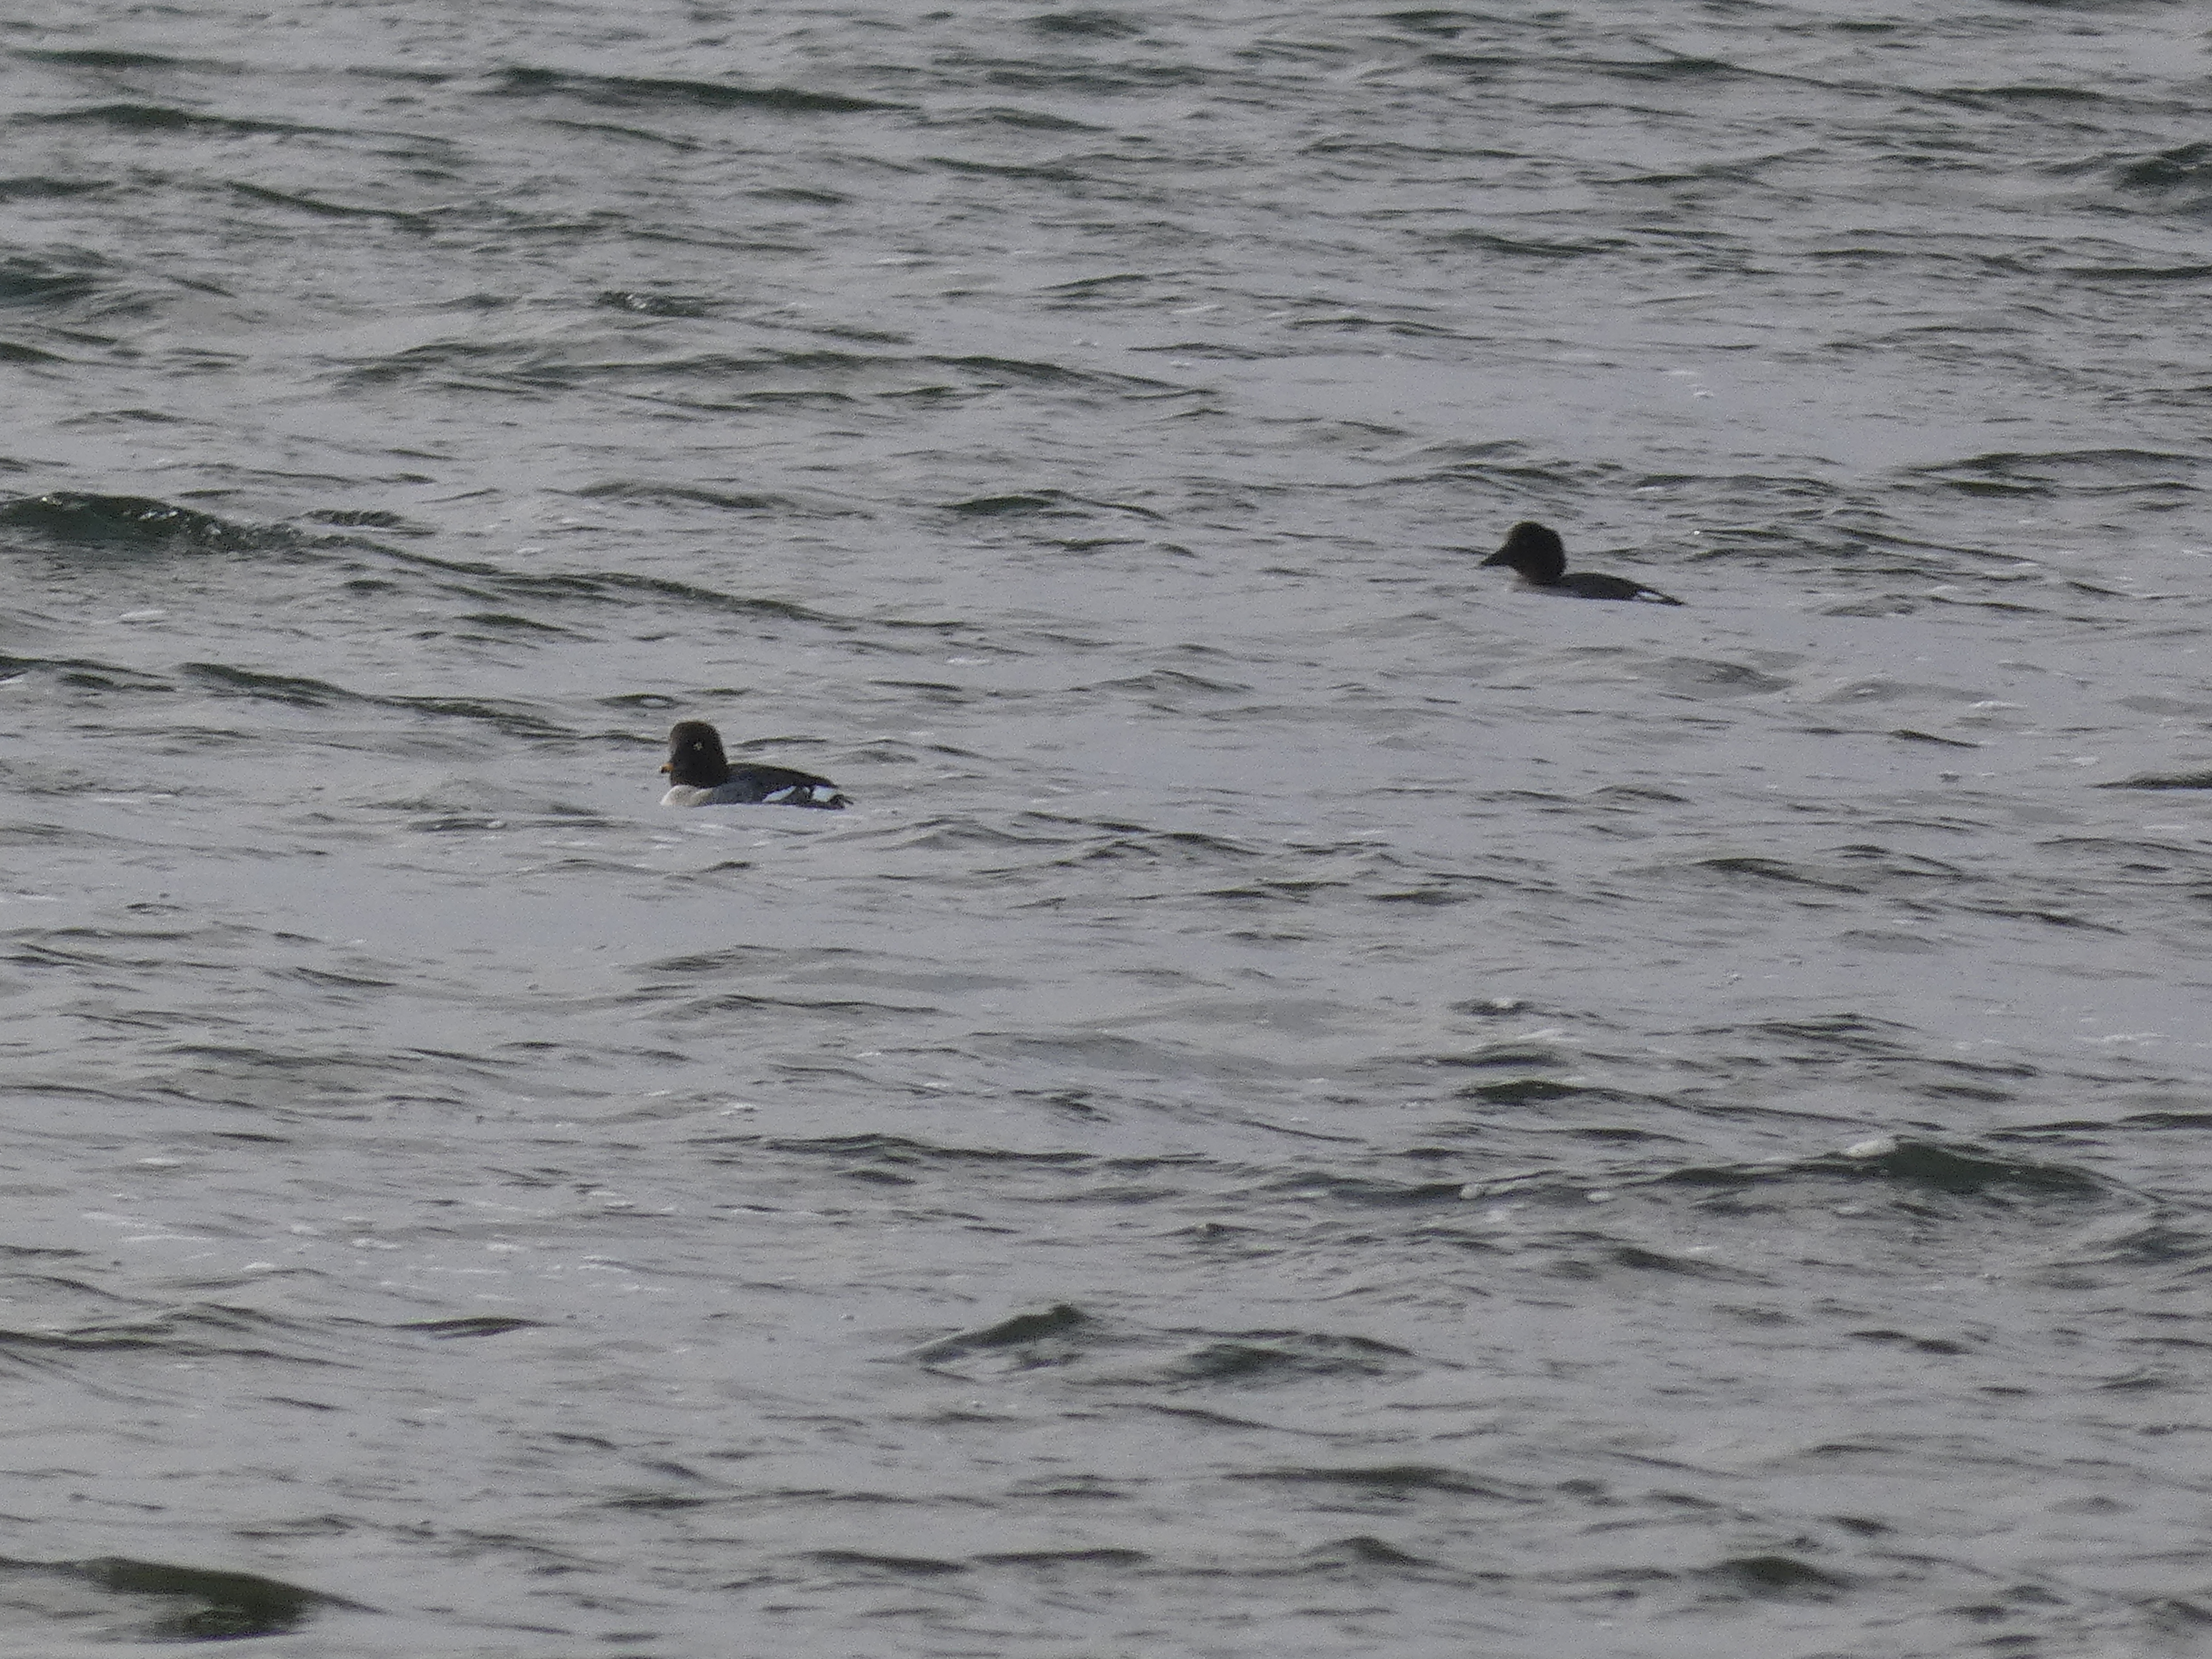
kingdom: Animalia
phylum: Chordata
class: Aves
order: Anseriformes
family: Anatidae
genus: Bucephala
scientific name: Bucephala clangula
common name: Hvinand
